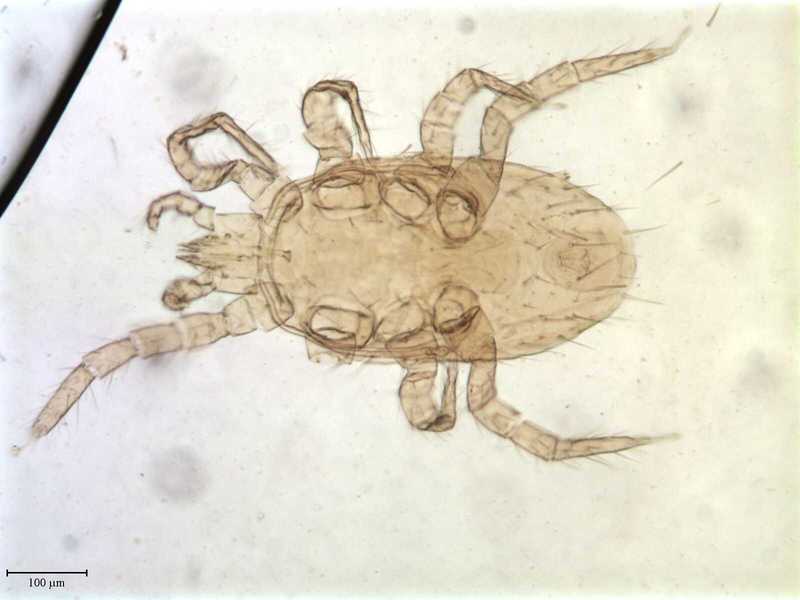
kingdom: Animalia
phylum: Arthropoda
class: Arachnida
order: Mesostigmata
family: Melicharidae
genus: Proctolaelaps
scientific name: Proctolaelaps hystrix
